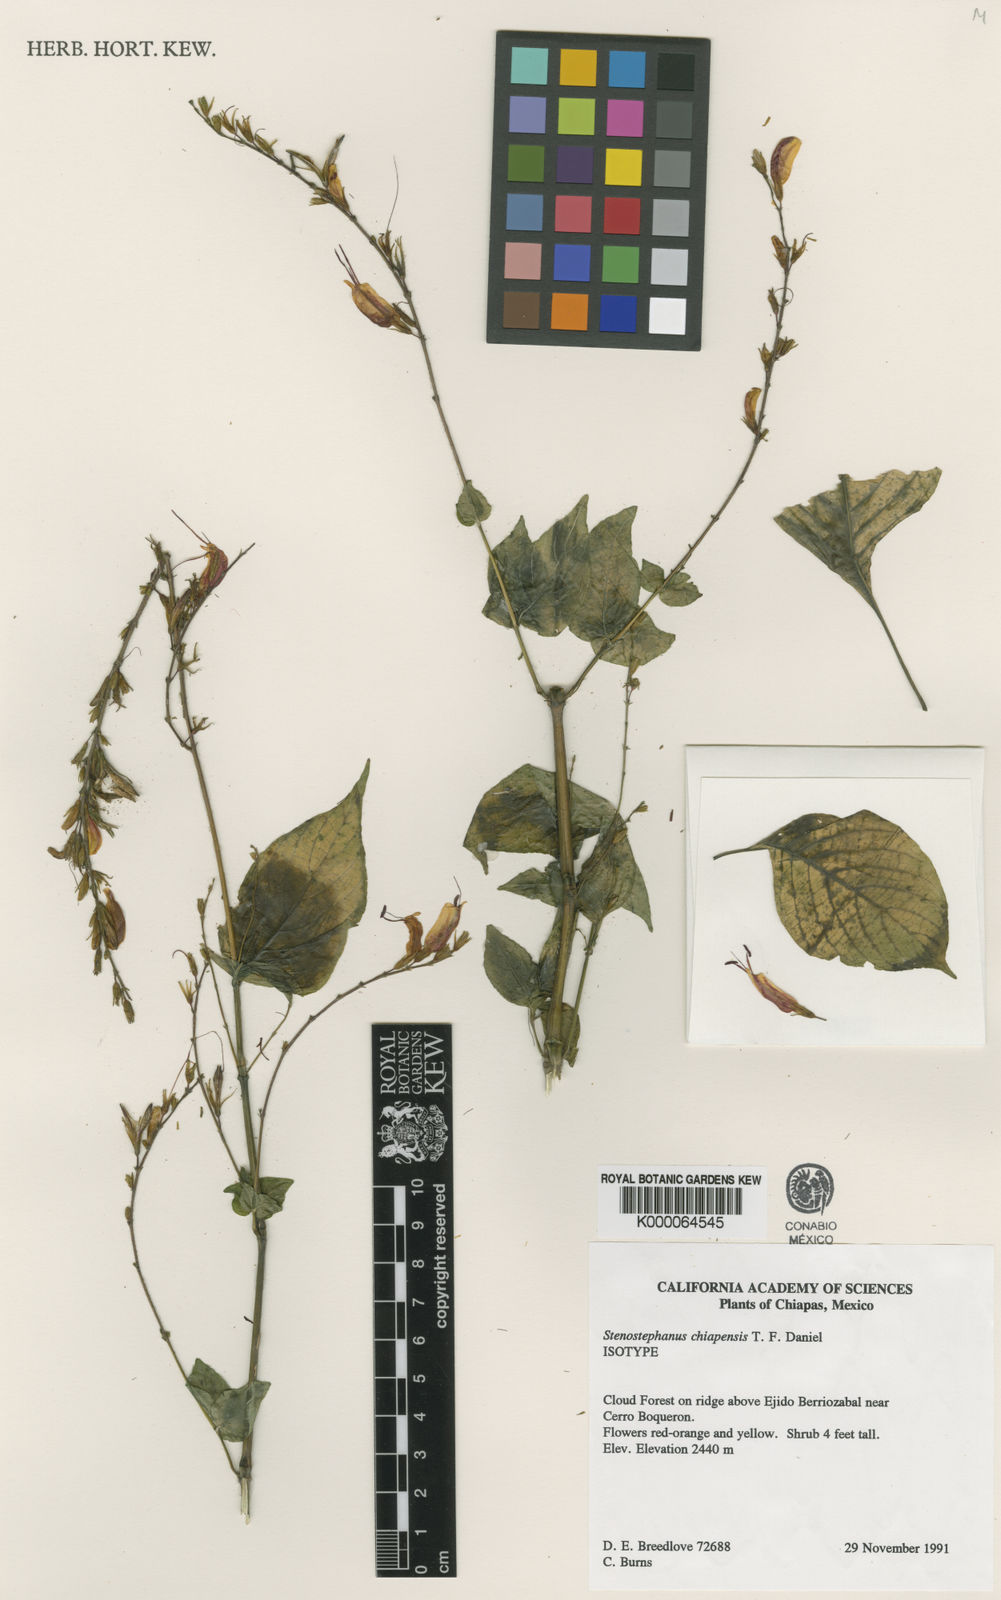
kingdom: Plantae
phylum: Tracheophyta
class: Magnoliopsida
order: Lamiales
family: Acanthaceae
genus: Stenostephanus
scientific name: Stenostephanus chiapensis
